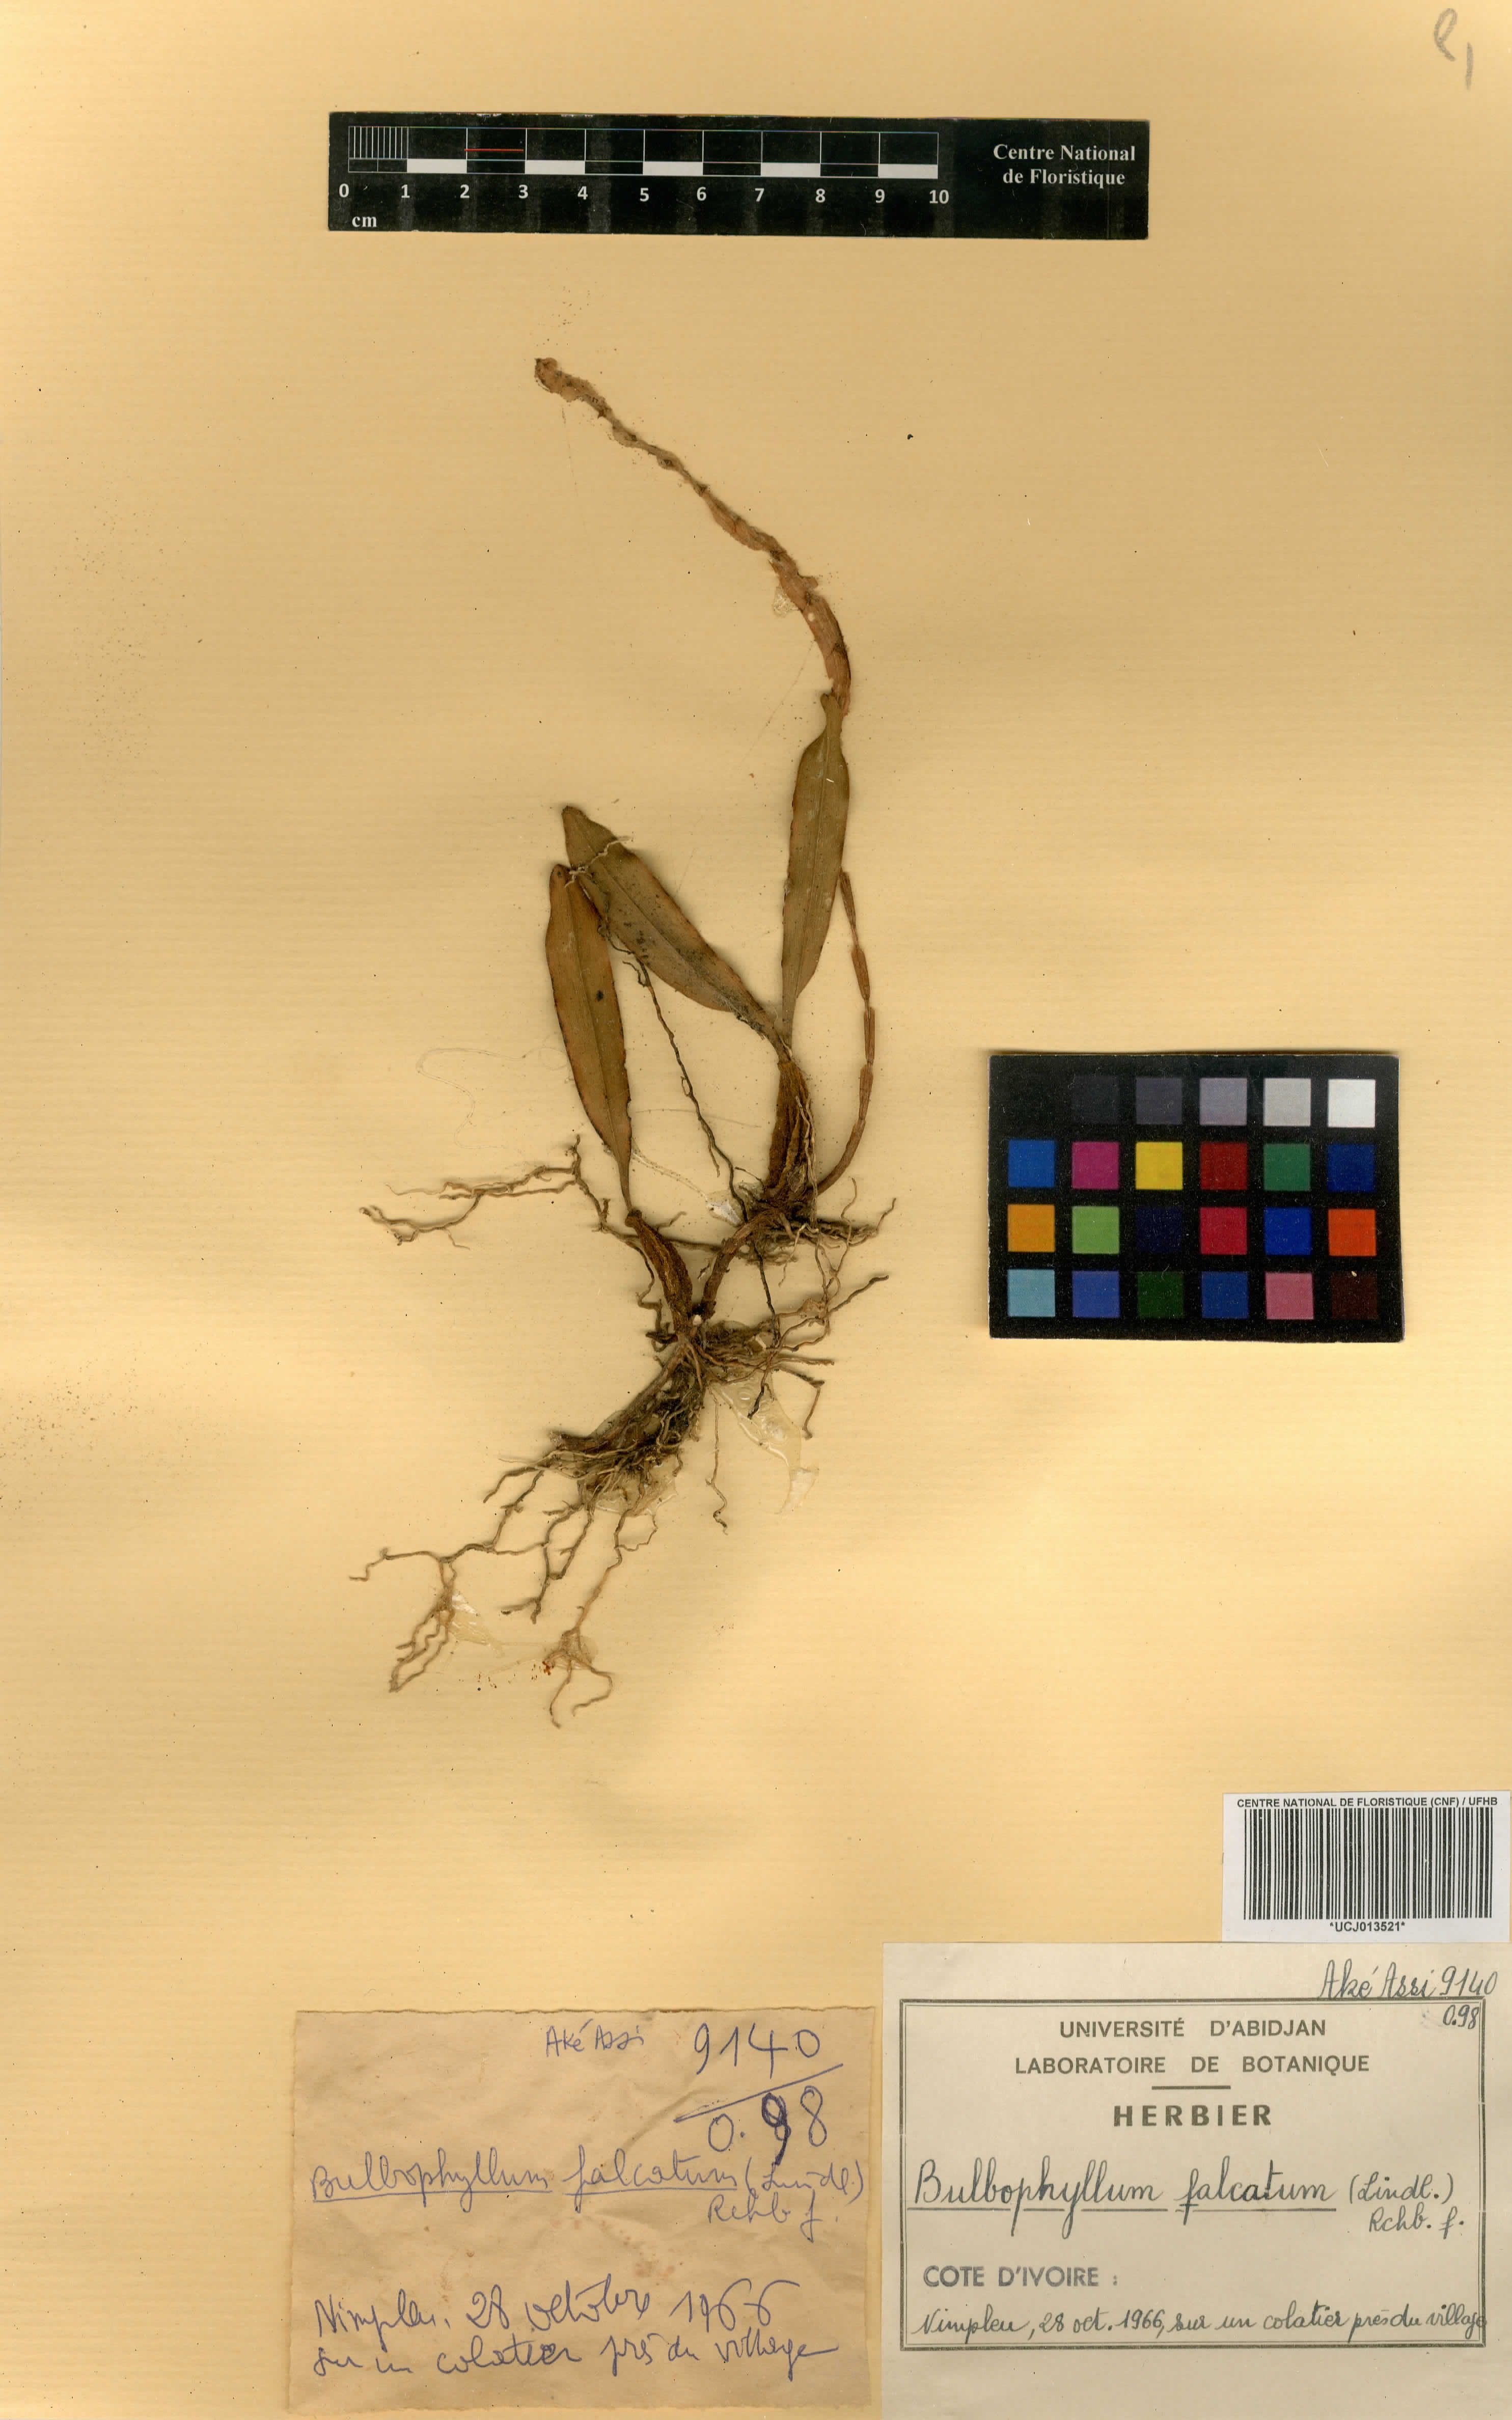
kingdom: Plantae
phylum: Tracheophyta
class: Liliopsida
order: Asparagales
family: Orchidaceae
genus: Bulbophyllum
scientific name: Bulbophyllum falcatum
